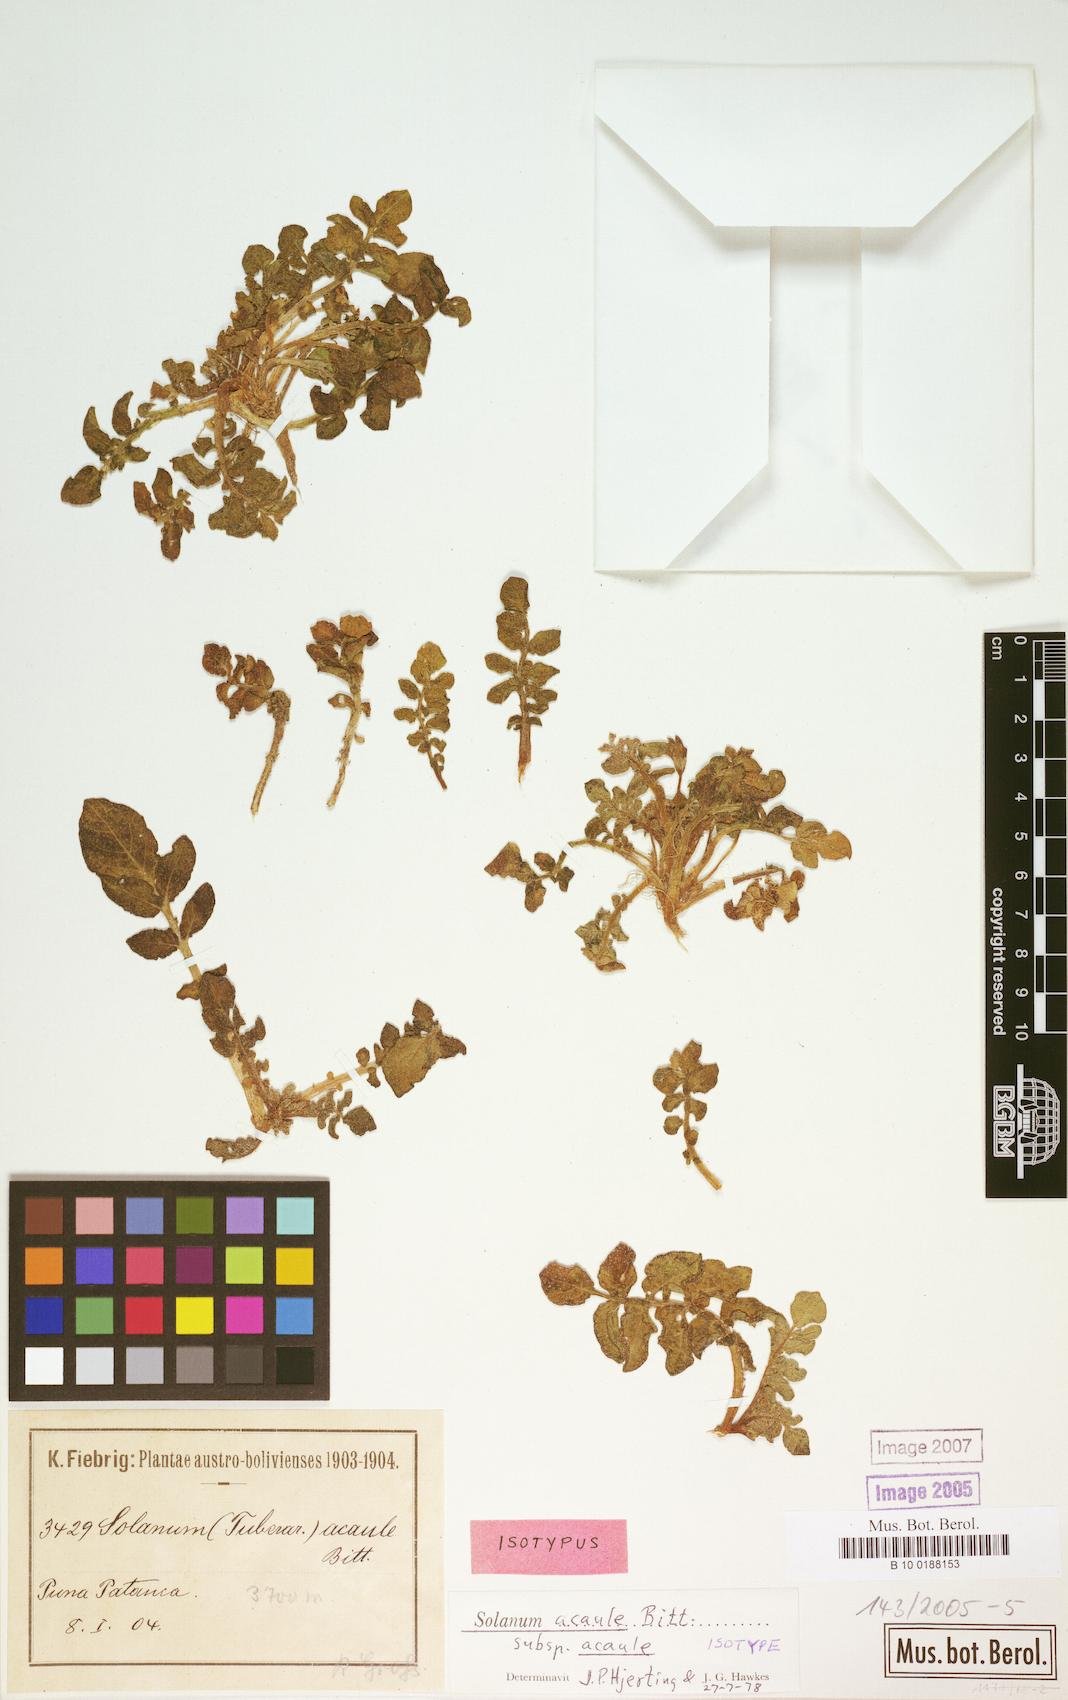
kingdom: Plantae
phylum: Tracheophyta
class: Magnoliopsida
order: Solanales
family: Solanaceae
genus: Solanum
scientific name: Solanum acaule
